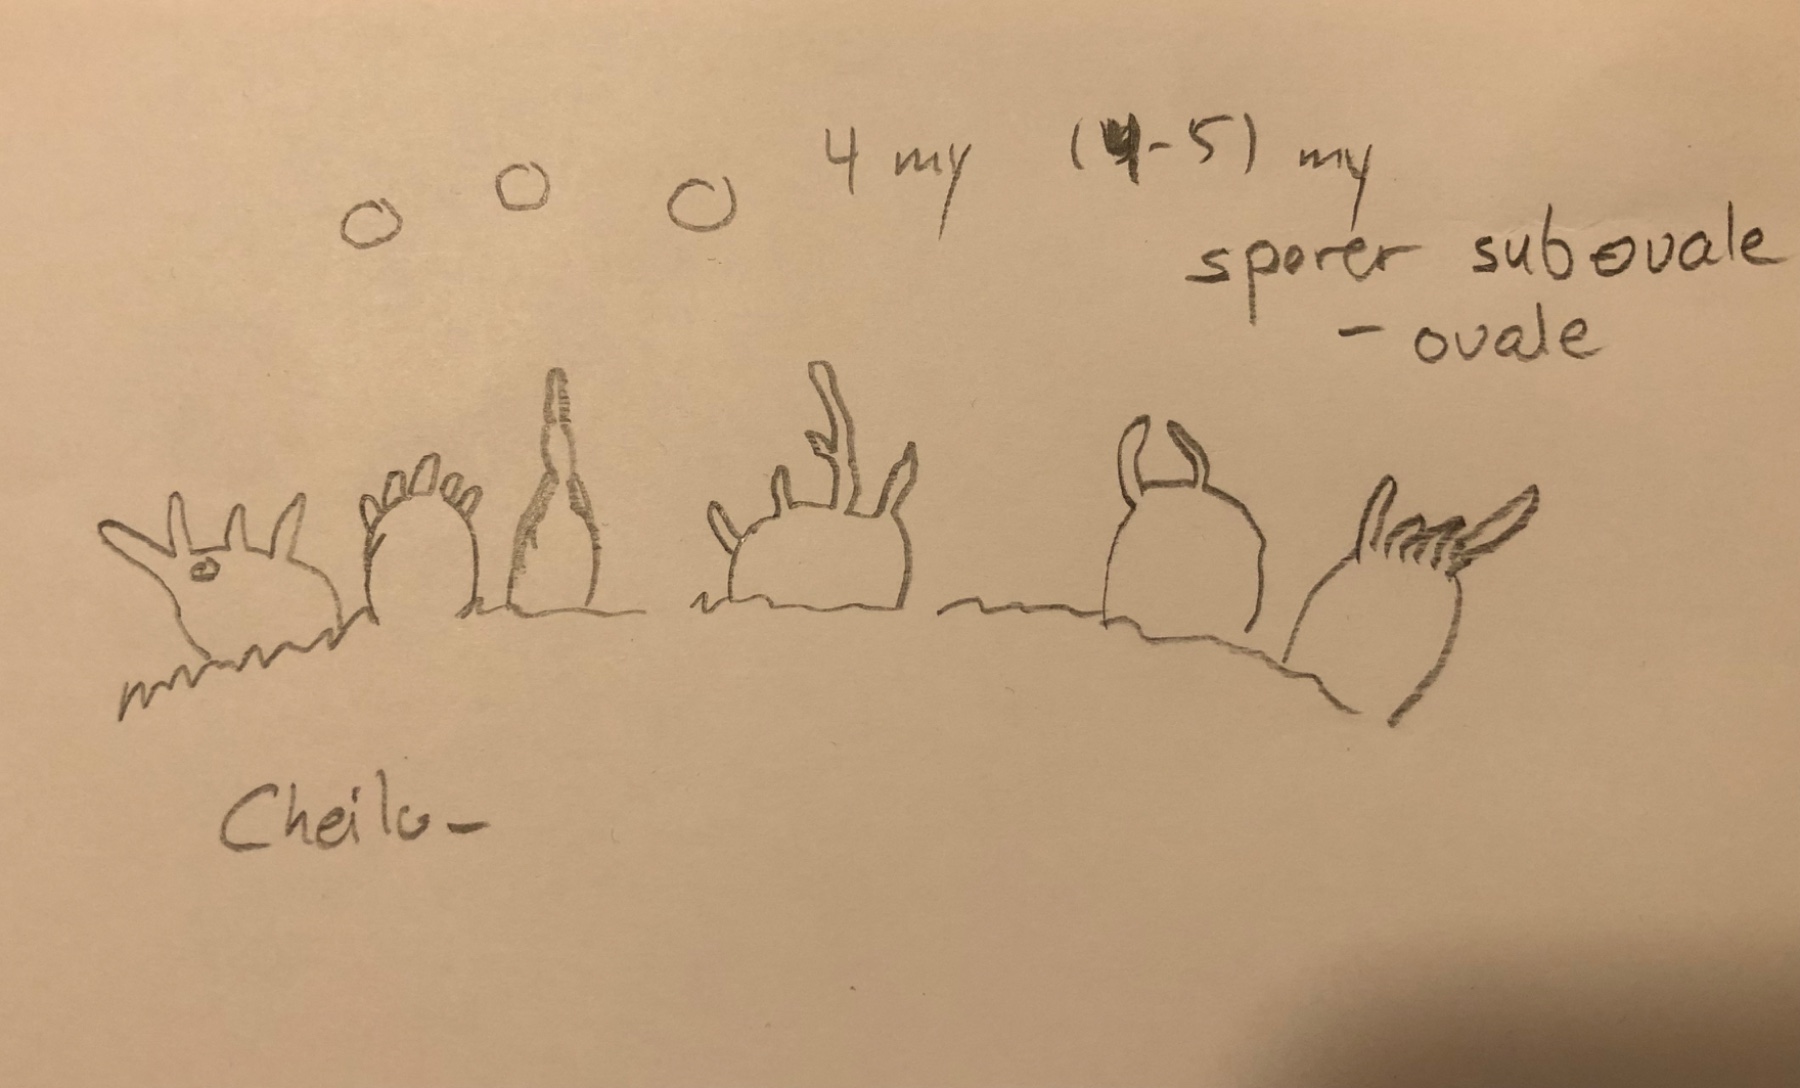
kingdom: Fungi
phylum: Basidiomycota
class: Agaricomycetes
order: Agaricales
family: Mycenaceae
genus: Mycena
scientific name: Mycena
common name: huesvamp
